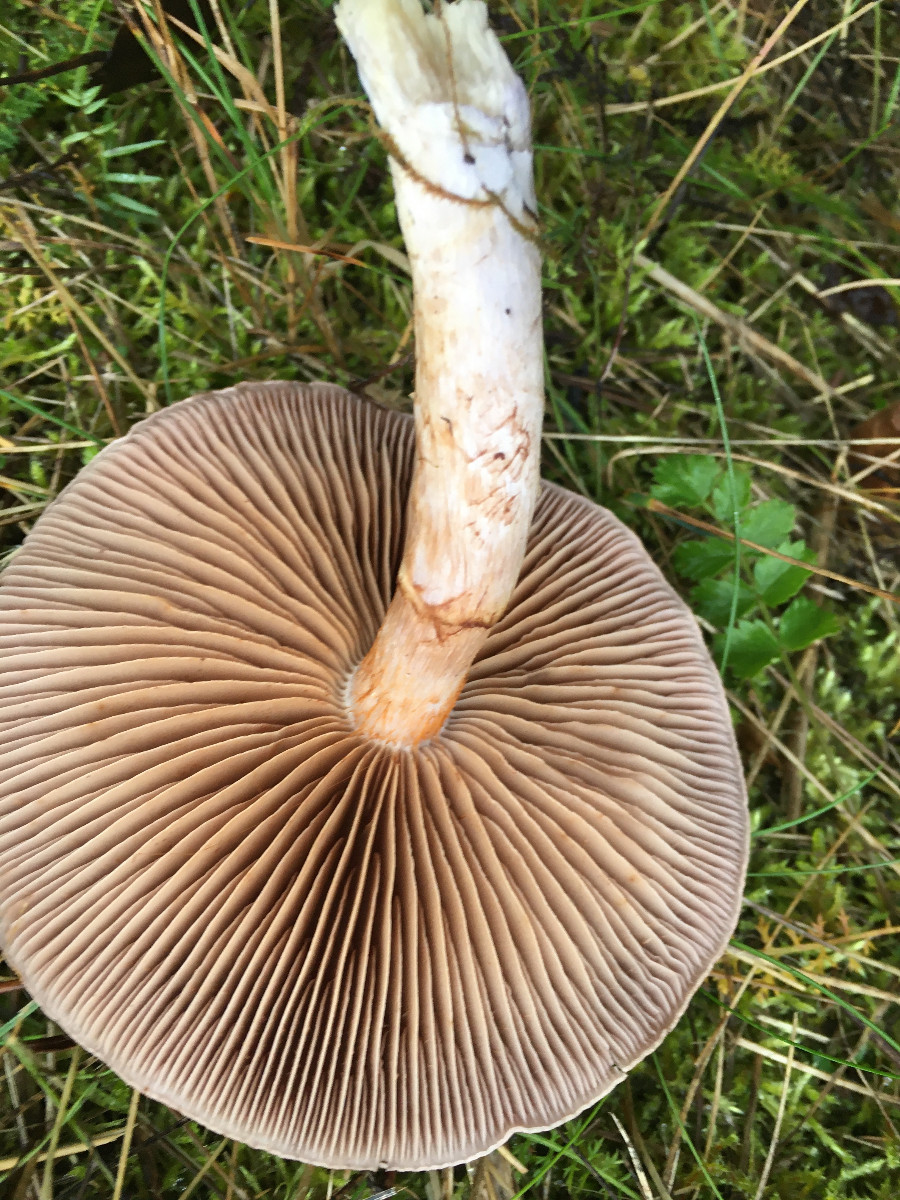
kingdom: Fungi
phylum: Basidiomycota
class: Agaricomycetes
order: Agaricales
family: Cortinariaceae
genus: Cortinarius
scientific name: Cortinarius
